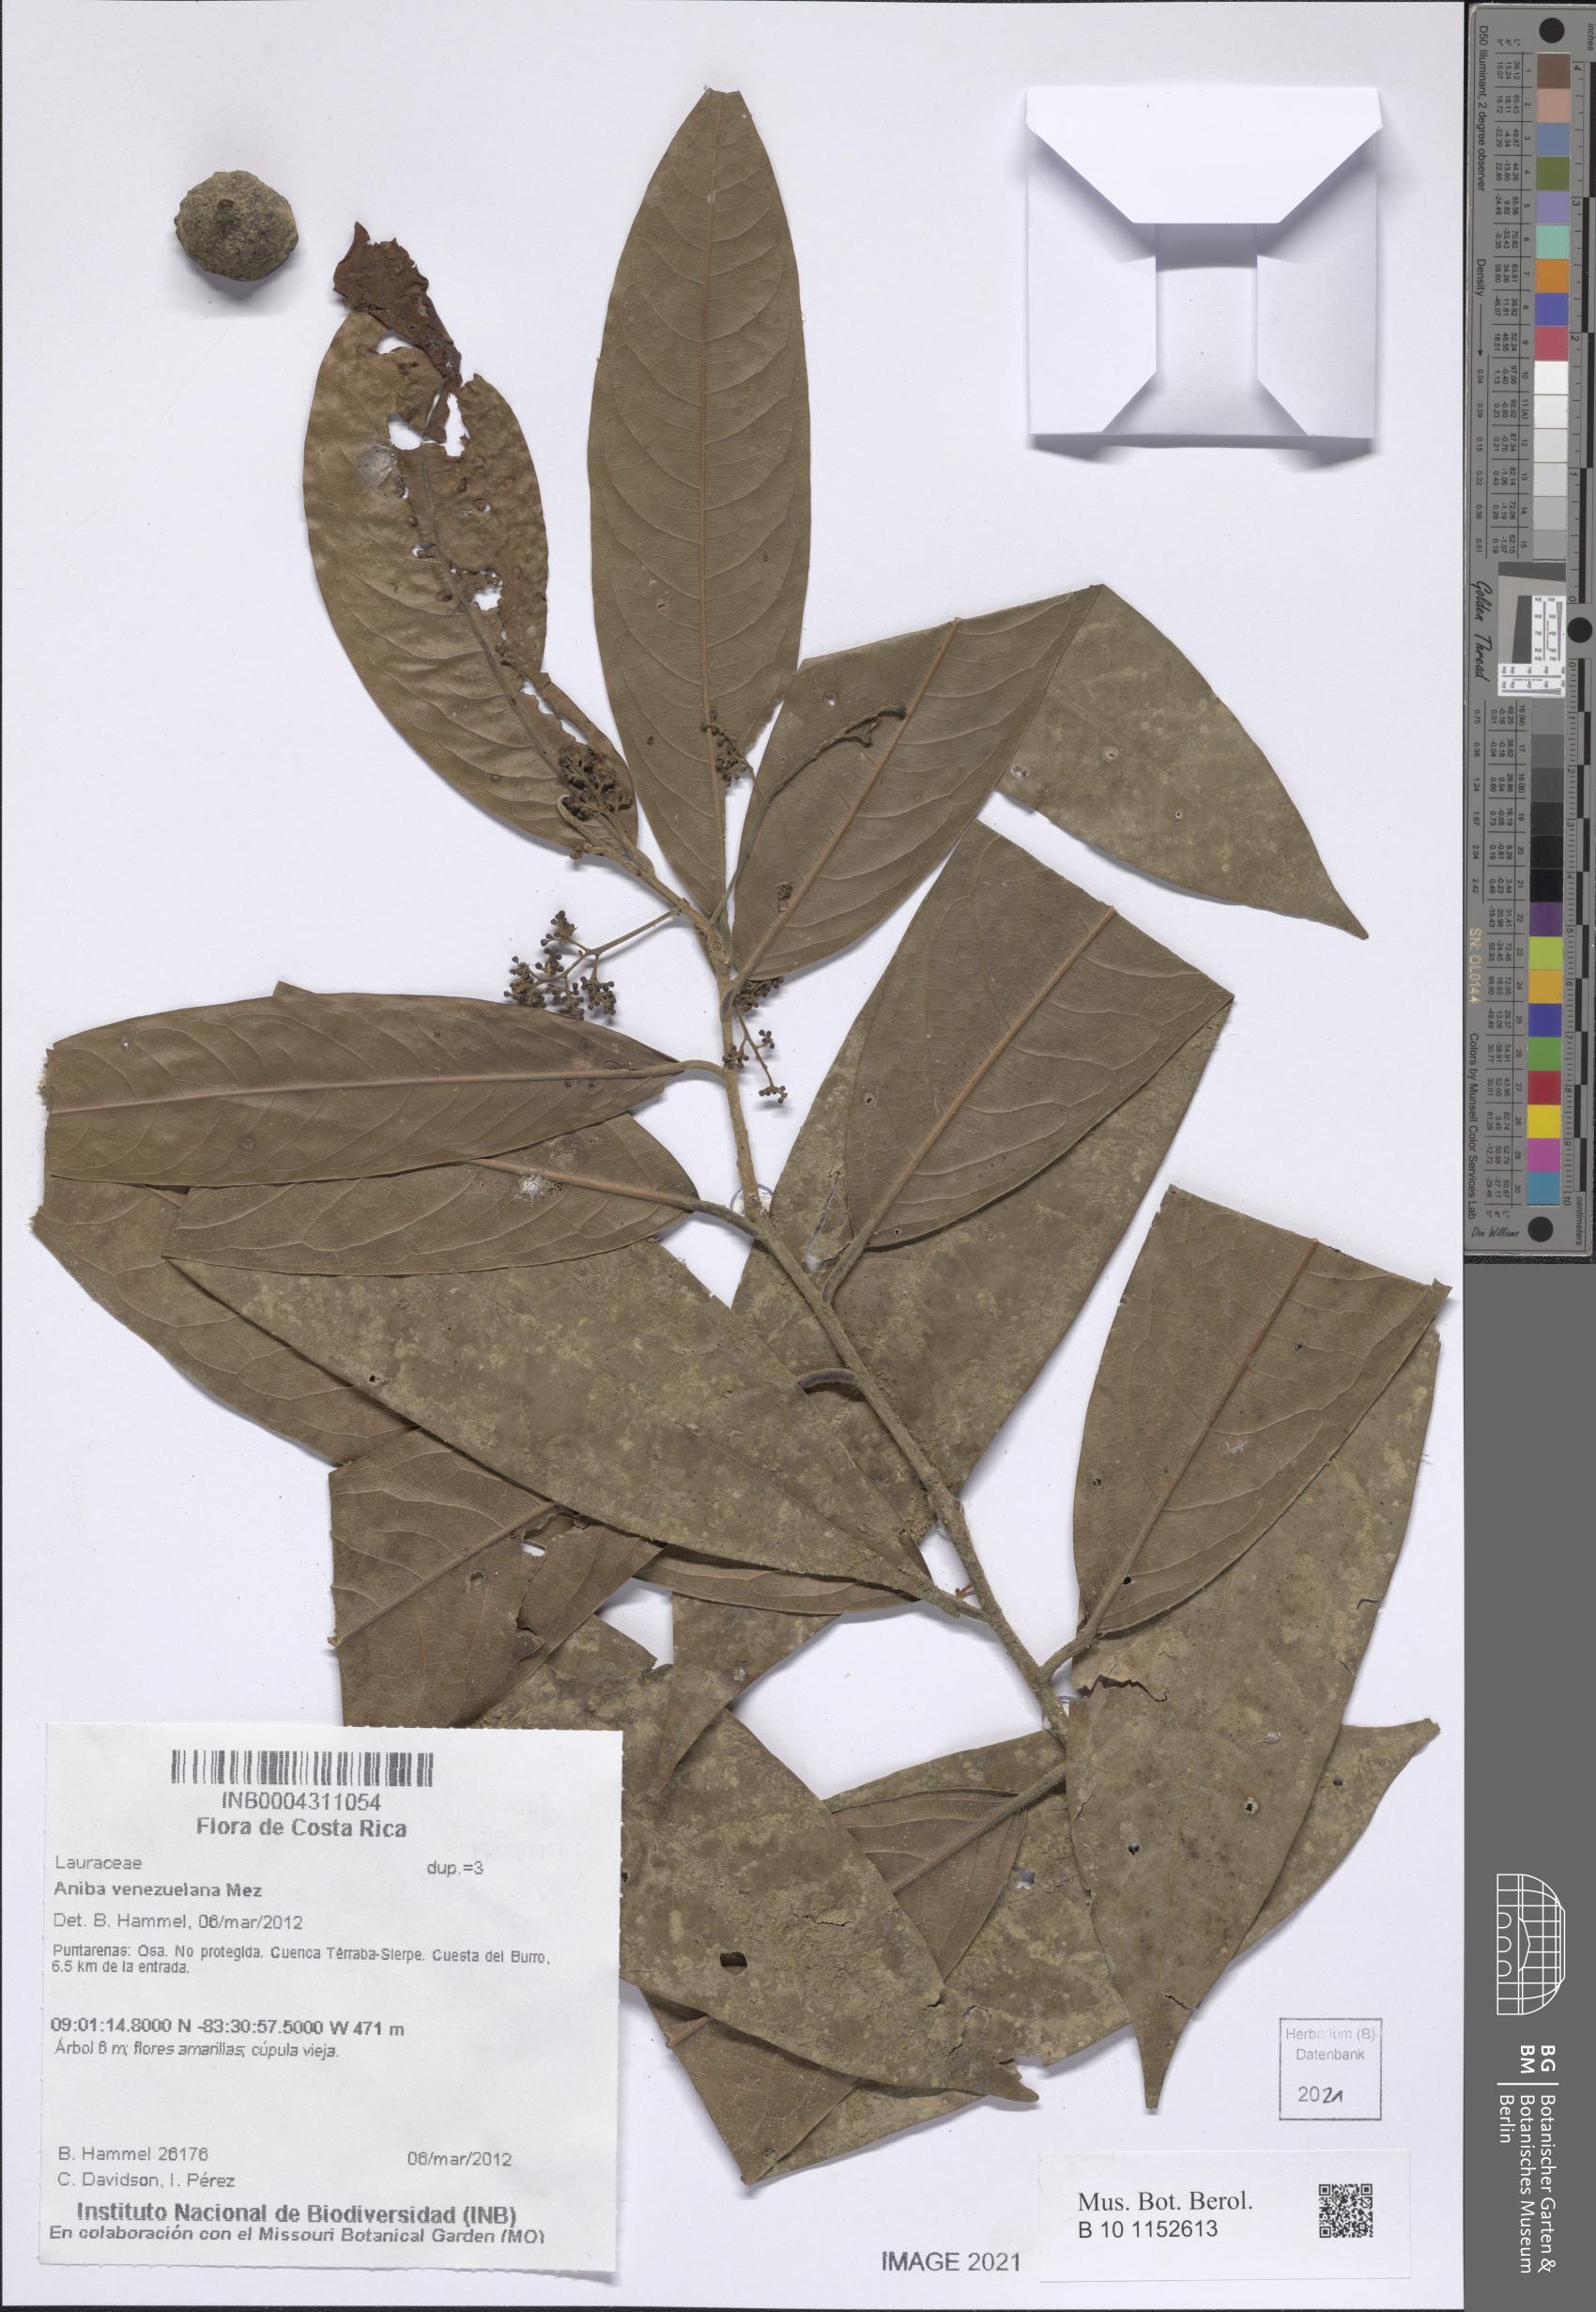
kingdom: Plantae
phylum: Tracheophyta
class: Magnoliopsida
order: Laurales
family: Lauraceae
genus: Licaria
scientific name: Licaria pergamentacea
